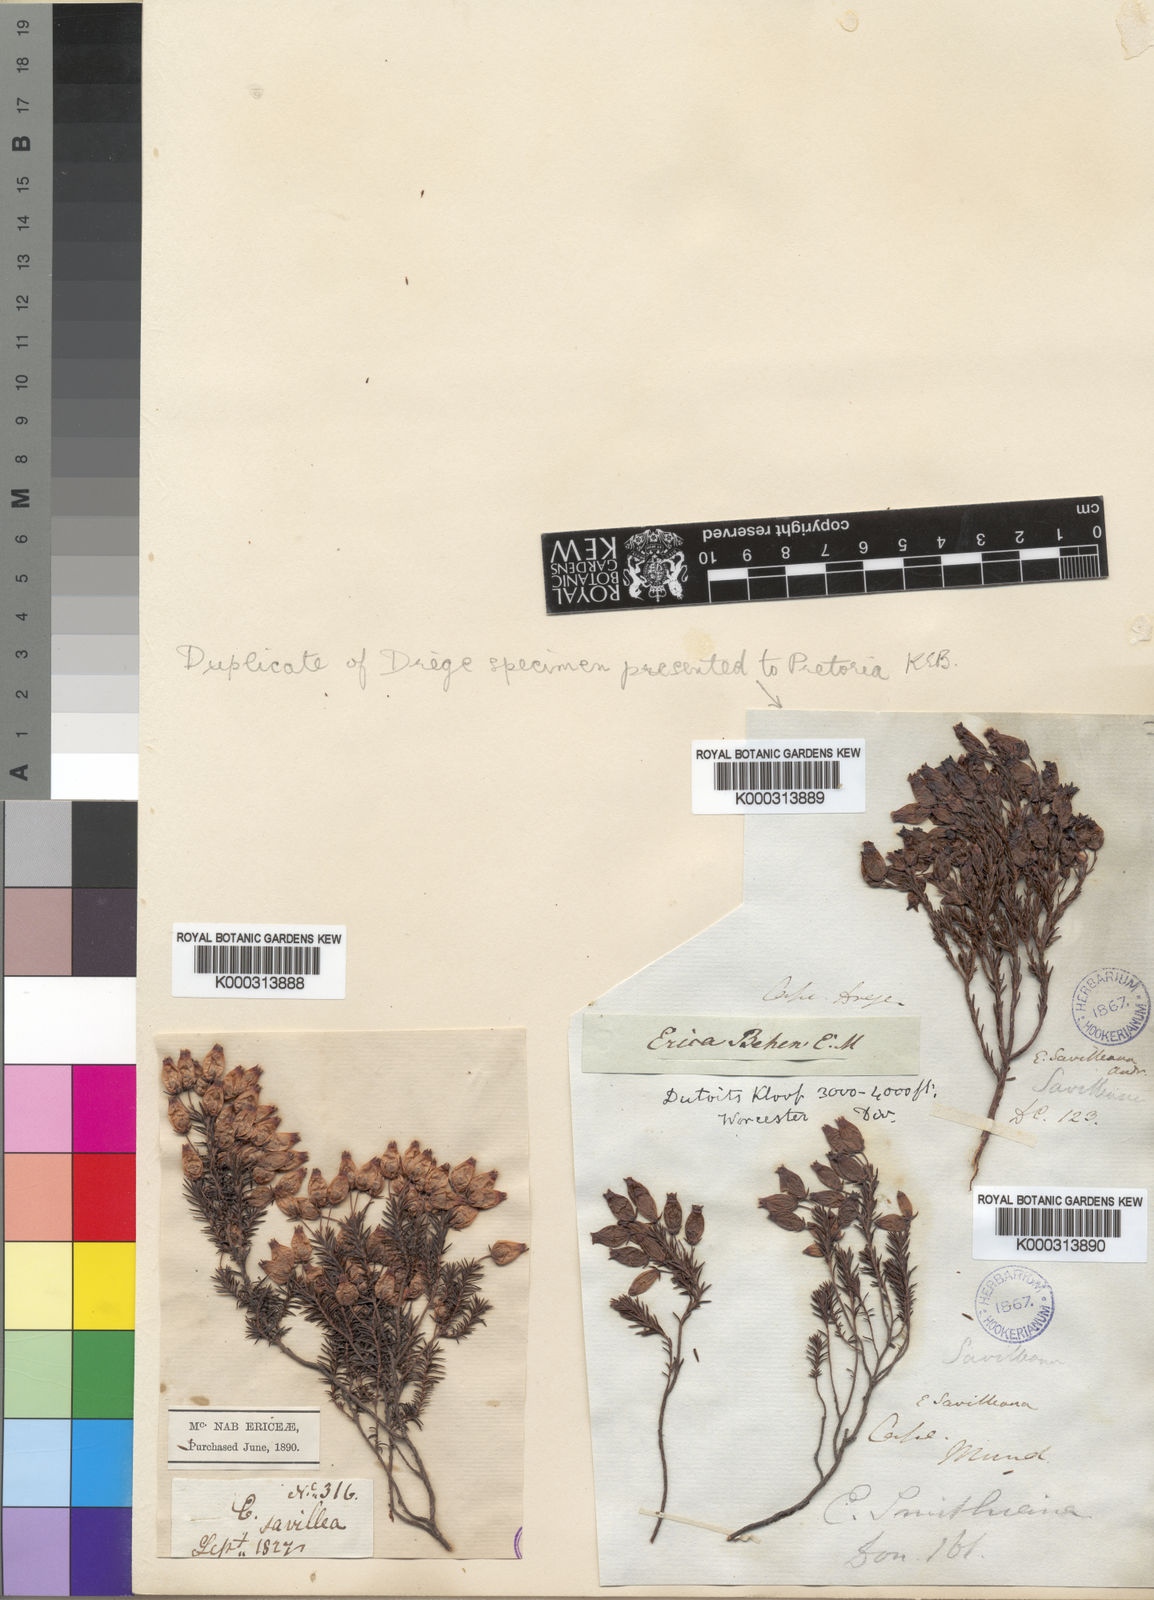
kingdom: Plantae
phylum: Tracheophyta
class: Magnoliopsida
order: Ericales
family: Ericaceae
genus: Erica
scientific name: Erica
